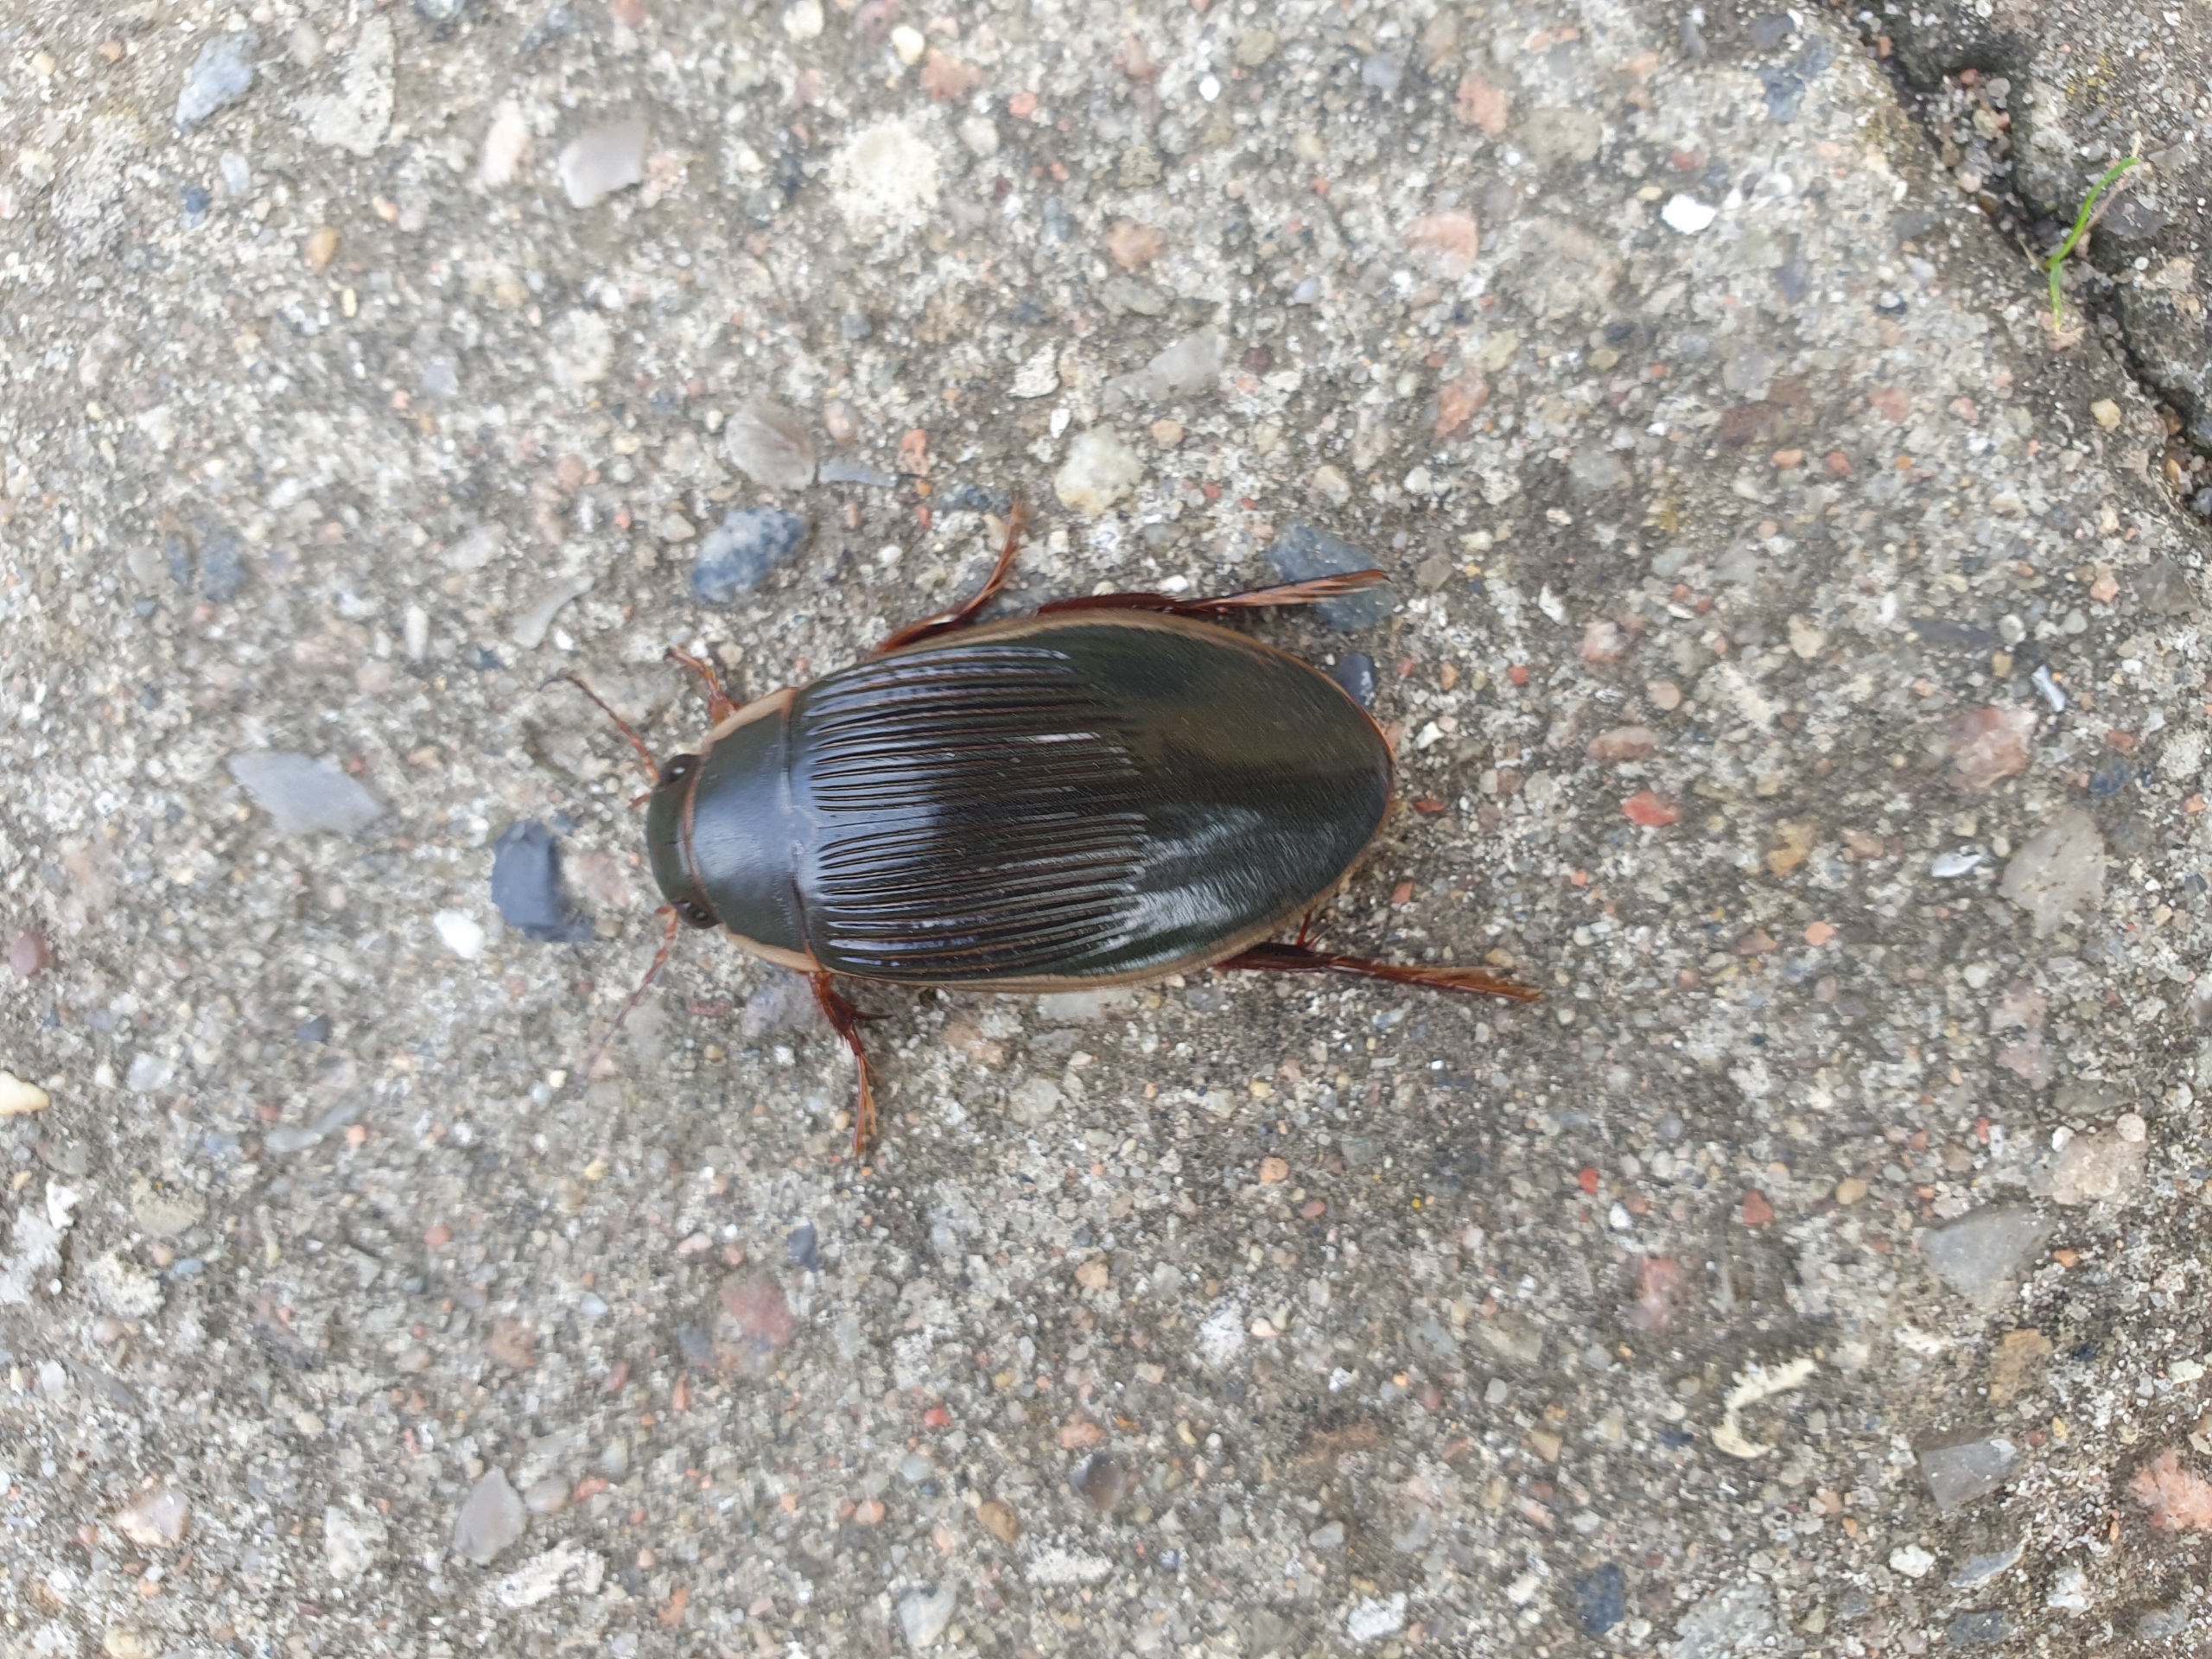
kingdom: Animalia
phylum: Arthropoda
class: Insecta
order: Coleoptera
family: Dytiscidae
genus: Dytiscus
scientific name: Dytiscus dimidiatus
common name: Rundhoftet vandkalv
